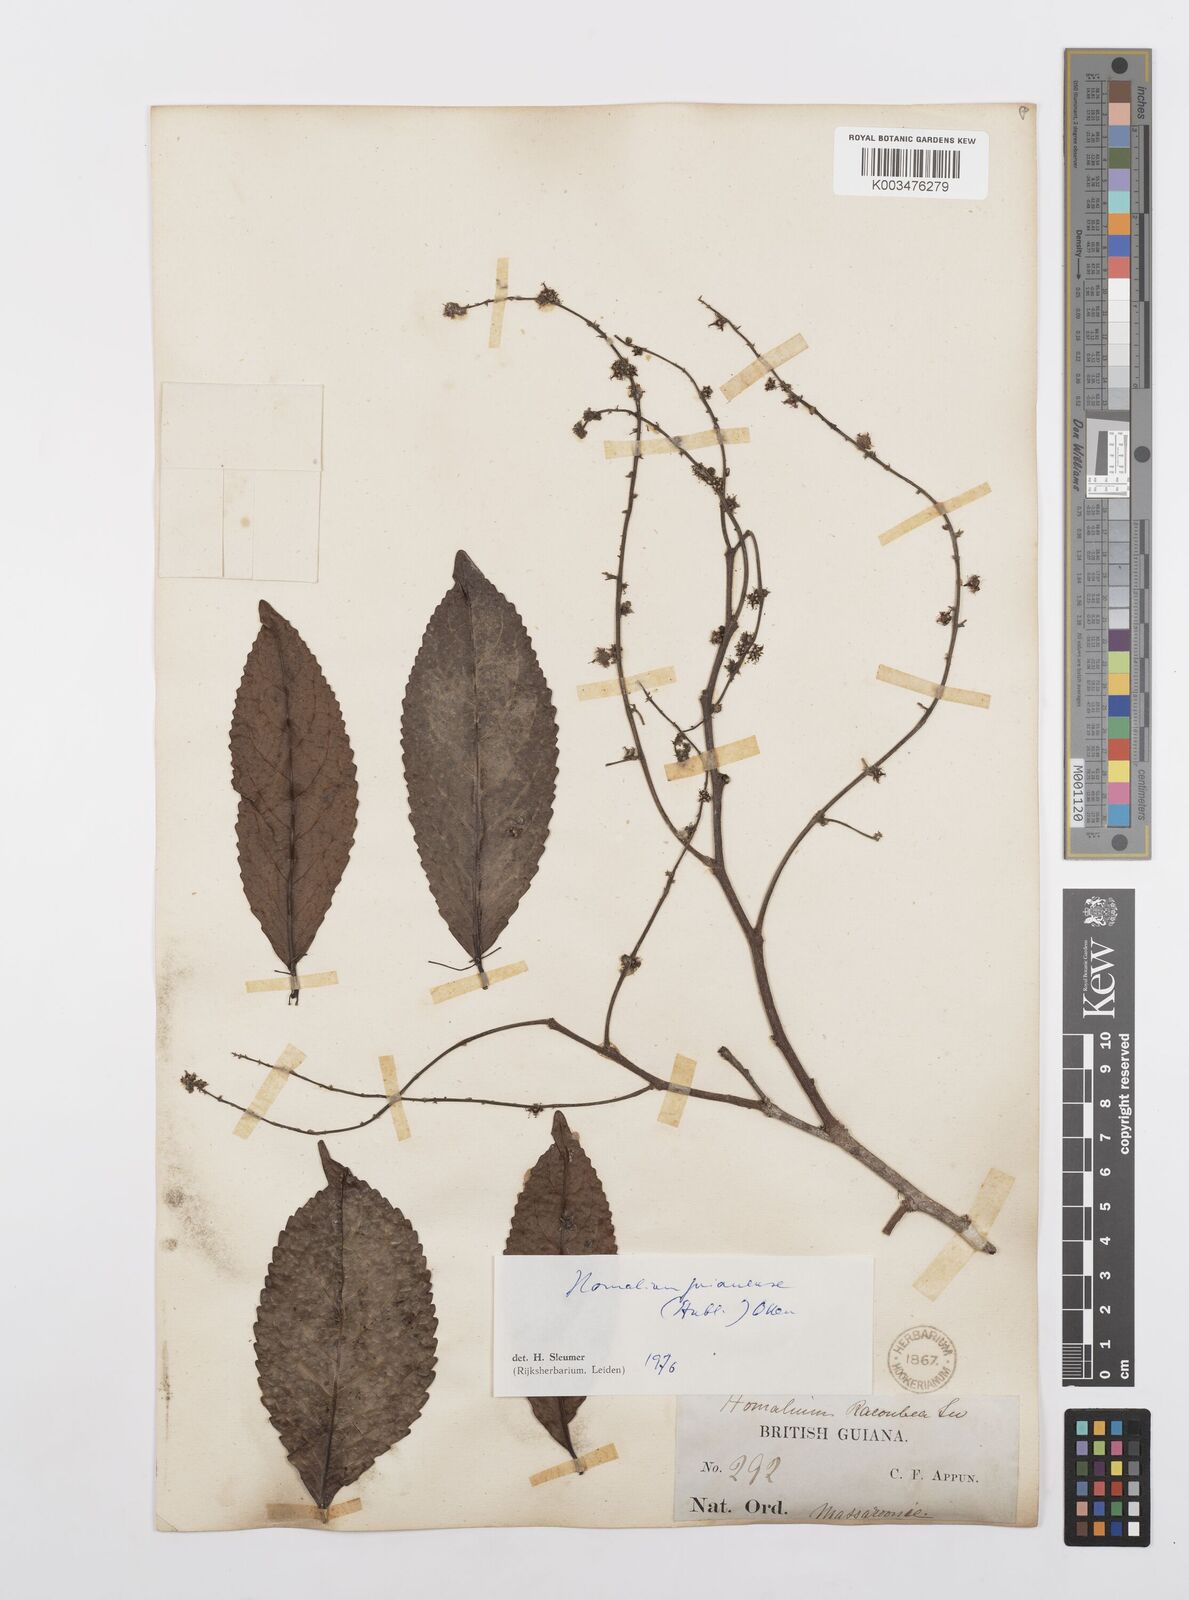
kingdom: Plantae
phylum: Tracheophyta
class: Magnoliopsida
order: Malpighiales
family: Salicaceae
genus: Homalium
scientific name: Homalium guianense
